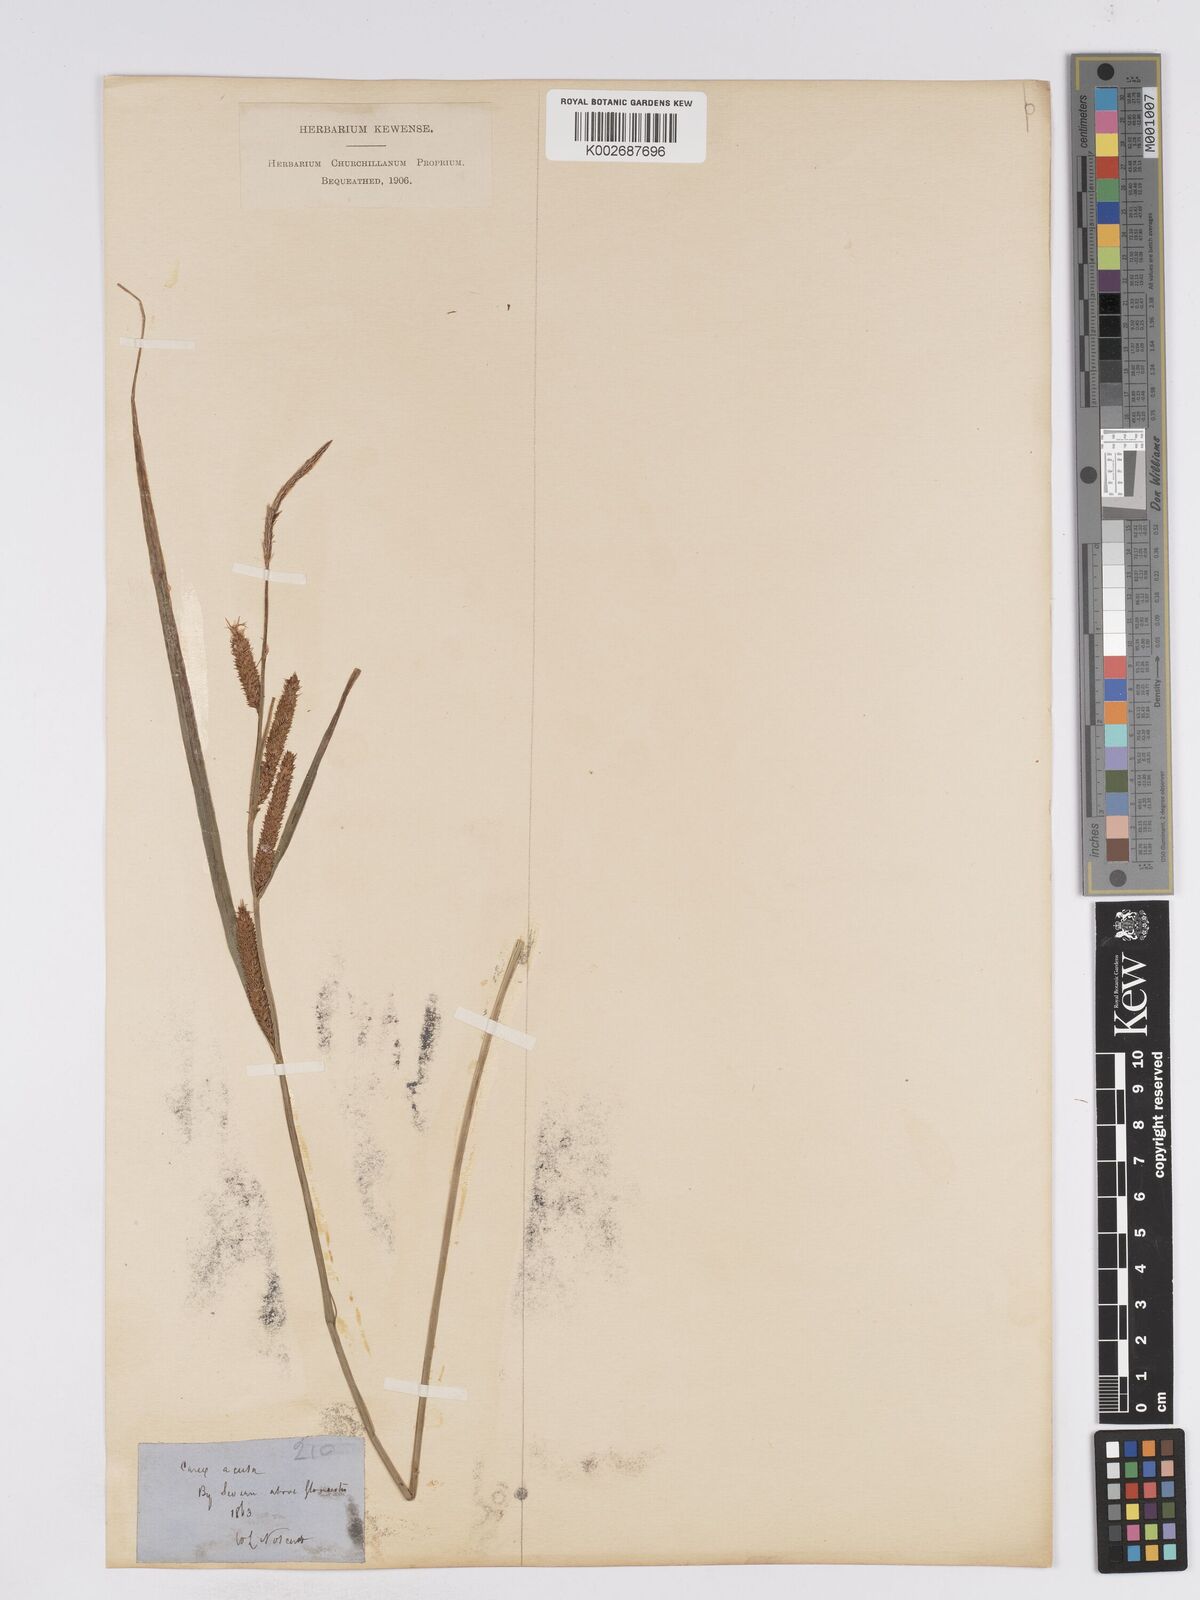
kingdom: Plantae
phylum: Tracheophyta
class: Liliopsida
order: Poales
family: Cyperaceae
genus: Carex
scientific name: Carex acuta
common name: Slender tufted-sedge
